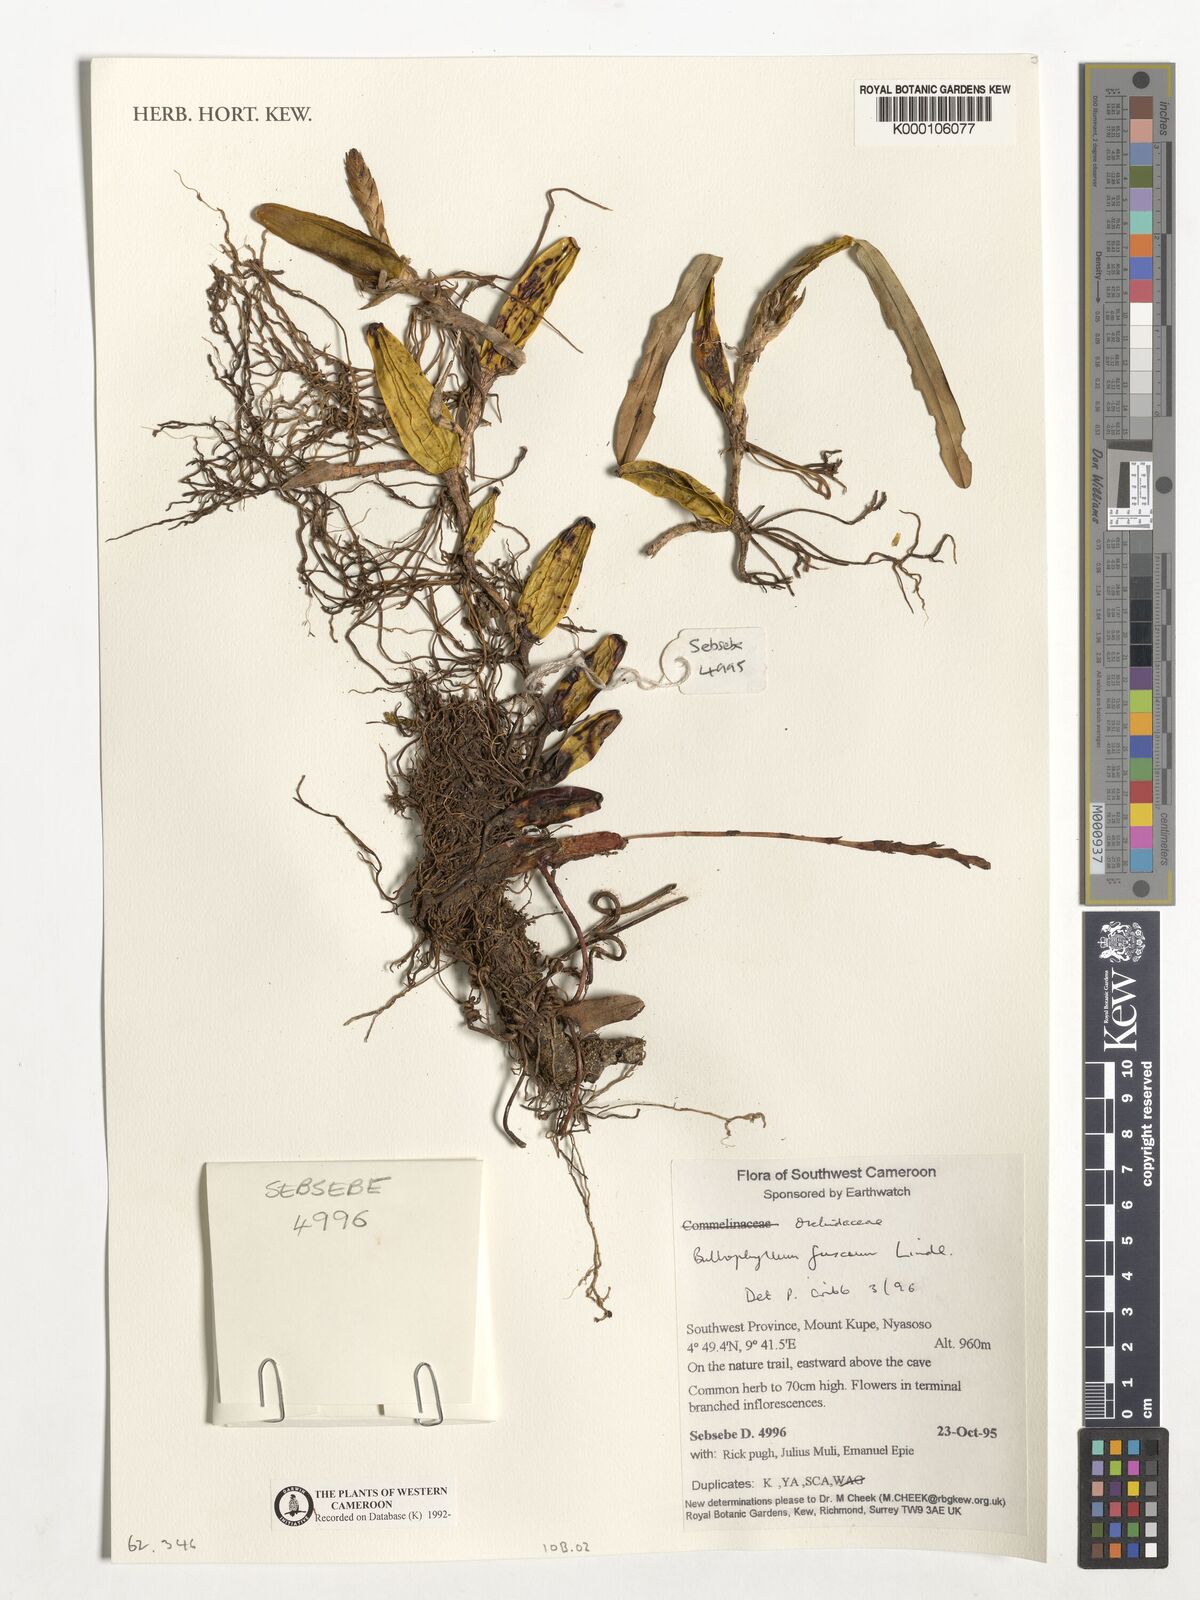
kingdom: Plantae
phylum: Tracheophyta
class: Liliopsida
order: Asparagales
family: Orchidaceae
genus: Bulbophyllum
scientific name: Bulbophyllum fuscum
